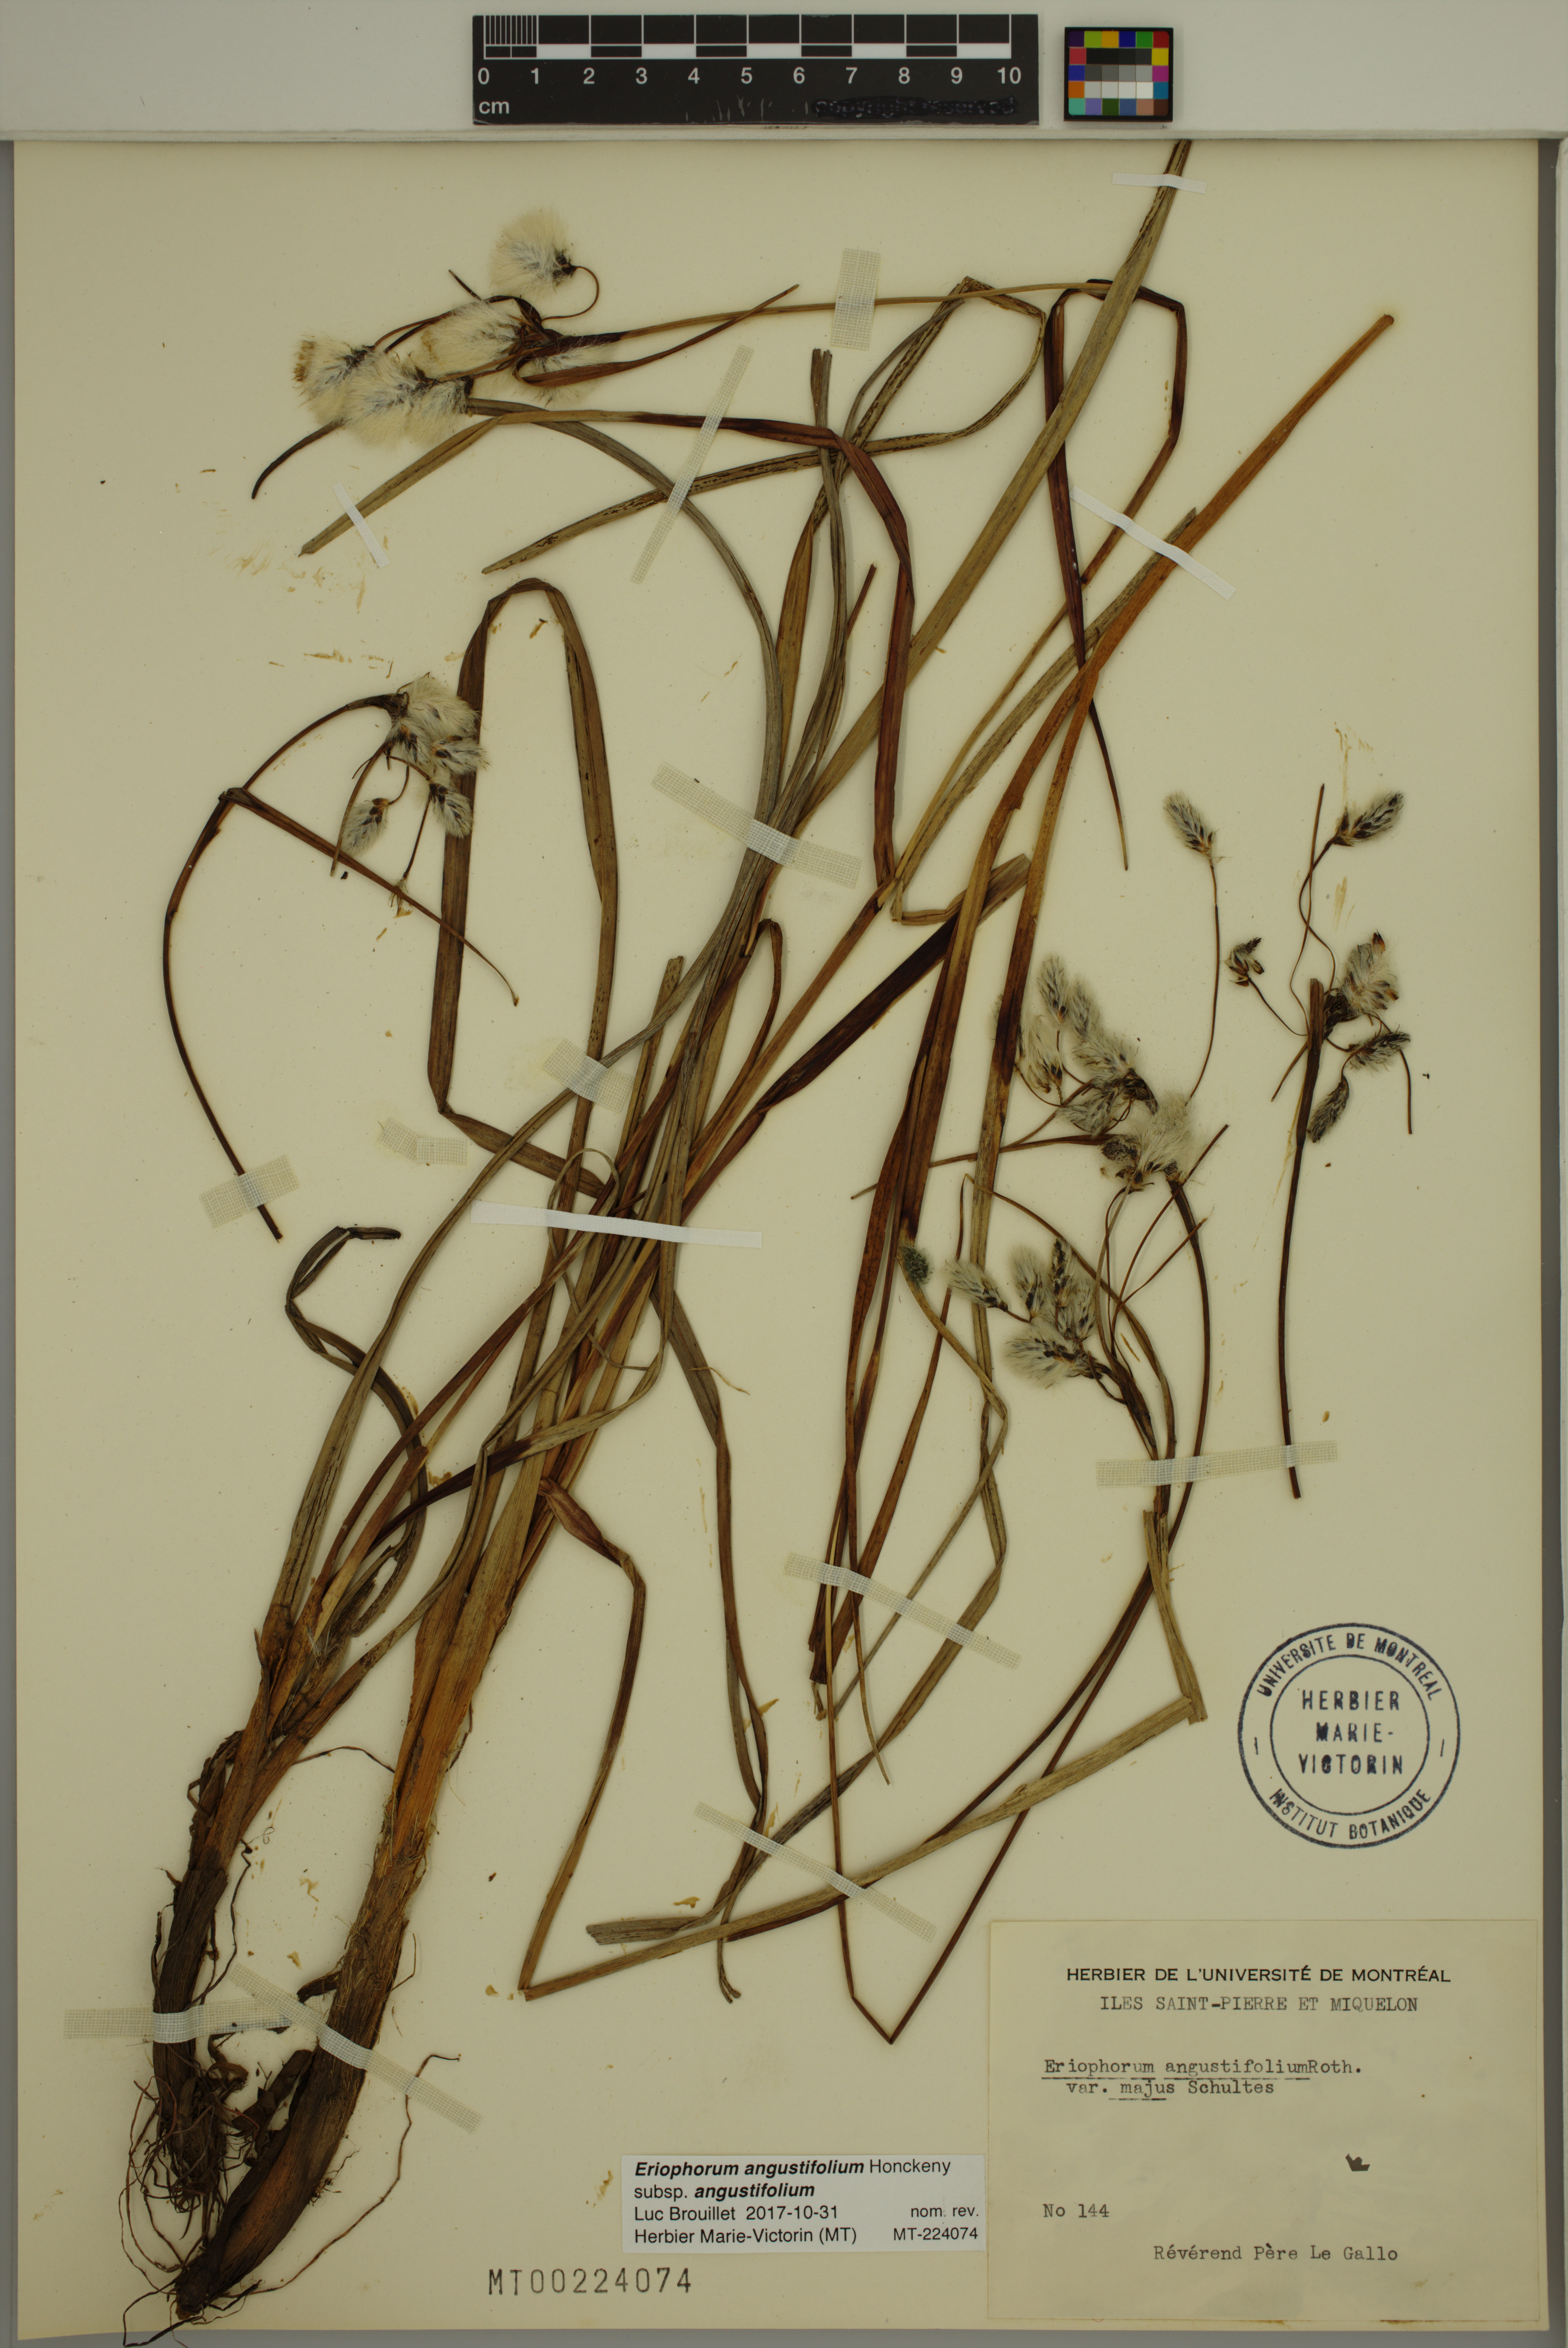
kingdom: Plantae
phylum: Tracheophyta
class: Liliopsida
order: Poales
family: Cyperaceae
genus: Eriophorum
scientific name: Eriophorum angustifolium
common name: Common cottongrass
